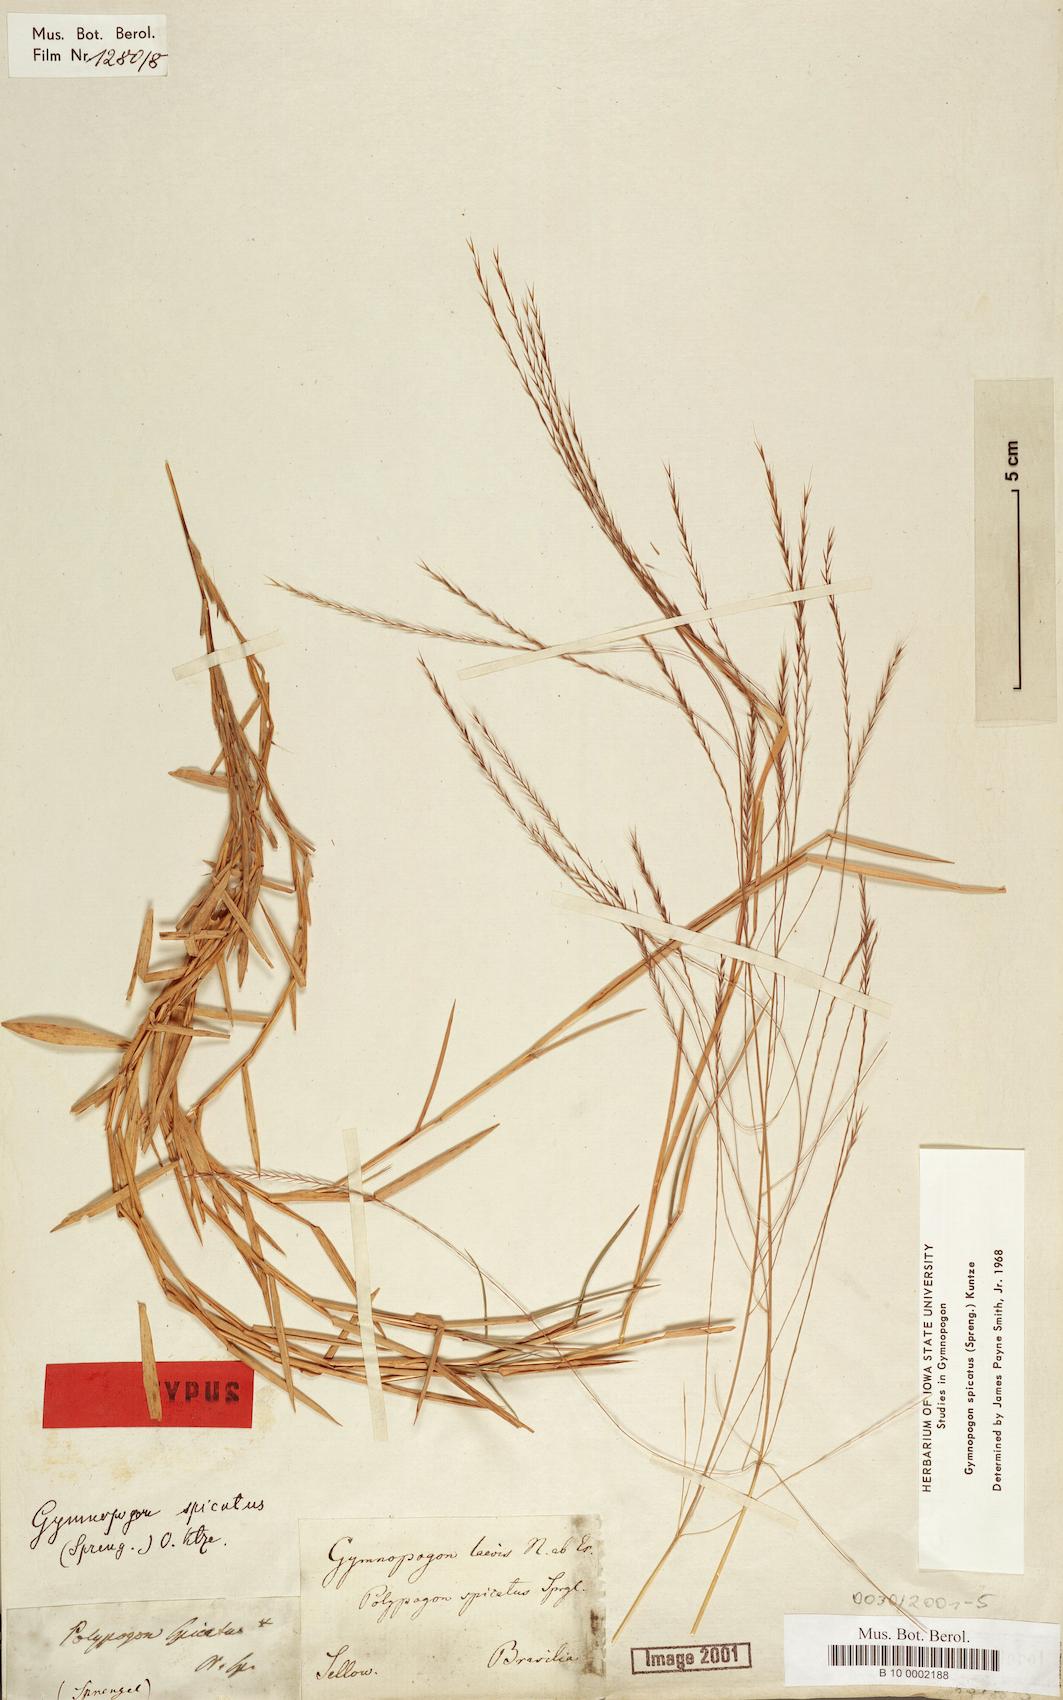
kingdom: Plantae
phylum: Tracheophyta
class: Liliopsida
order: Poales
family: Poaceae
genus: Gymnopogon
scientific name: Gymnopogon spicatus
